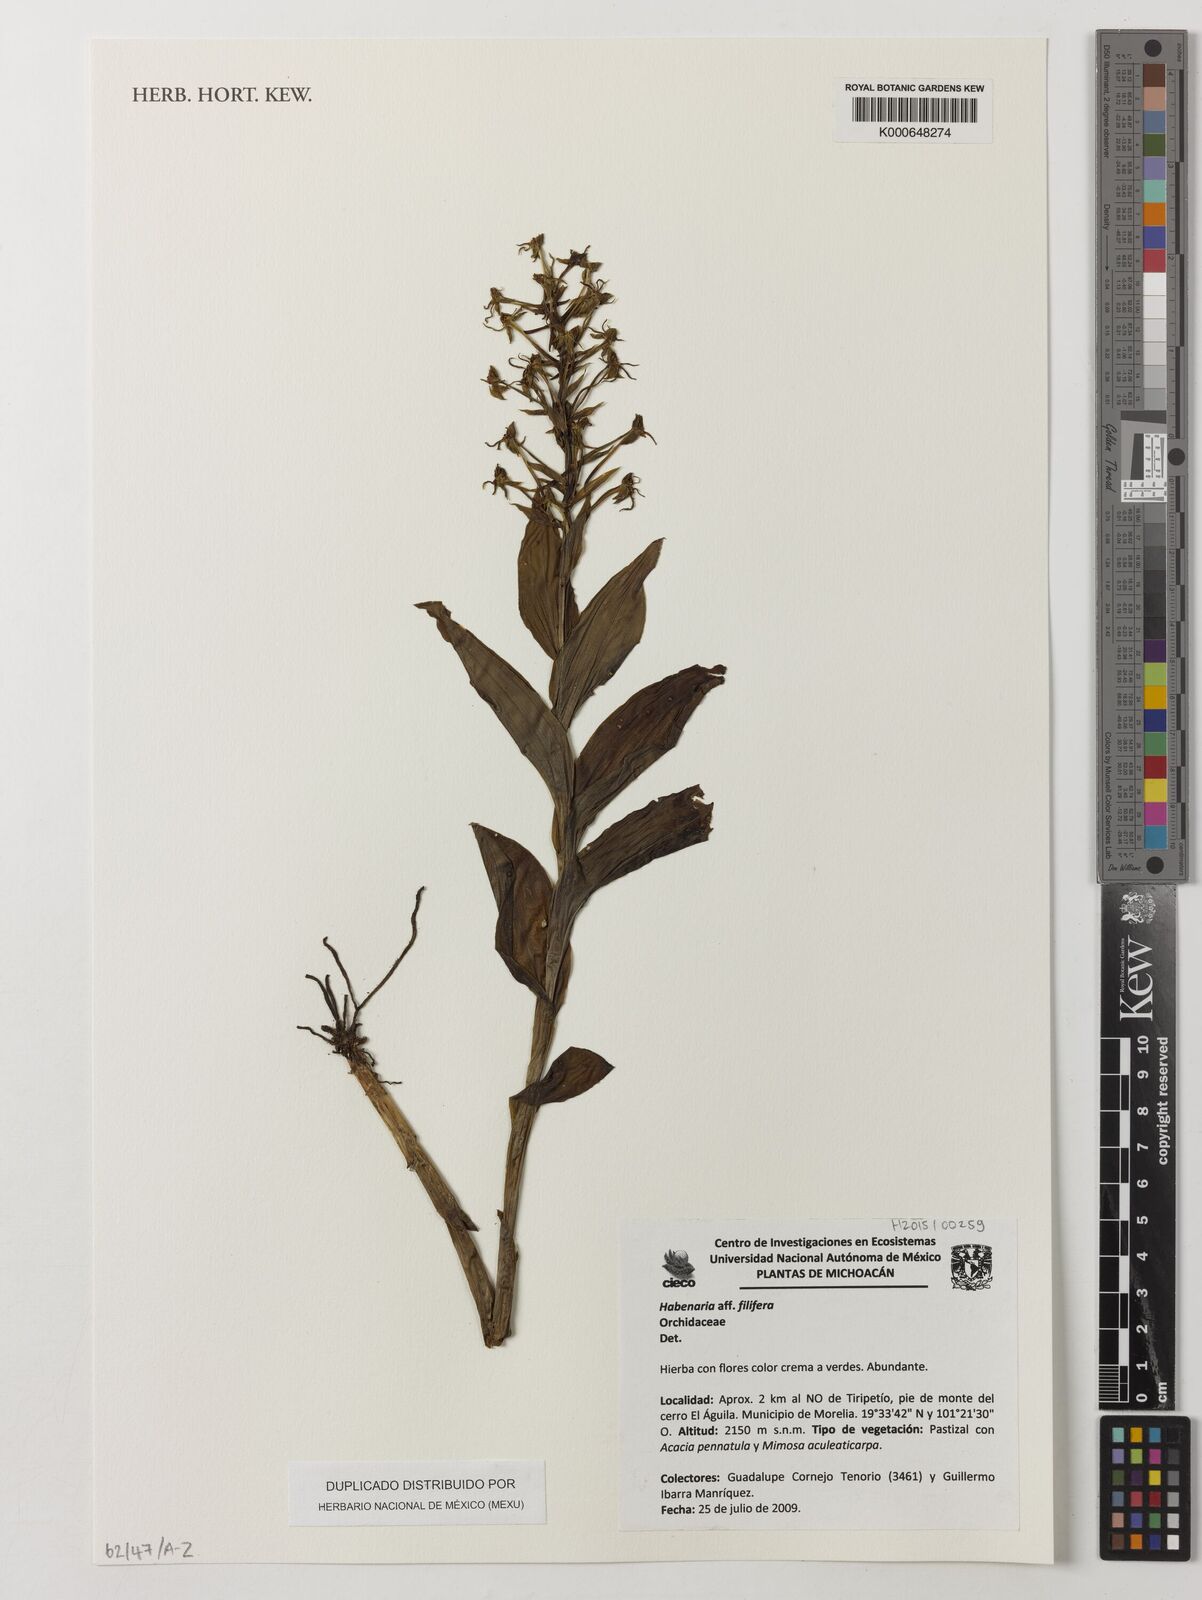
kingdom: Plantae
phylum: Tracheophyta
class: Liliopsida
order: Asparagales
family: Orchidaceae
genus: Habenaria
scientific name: Habenaria filifera
